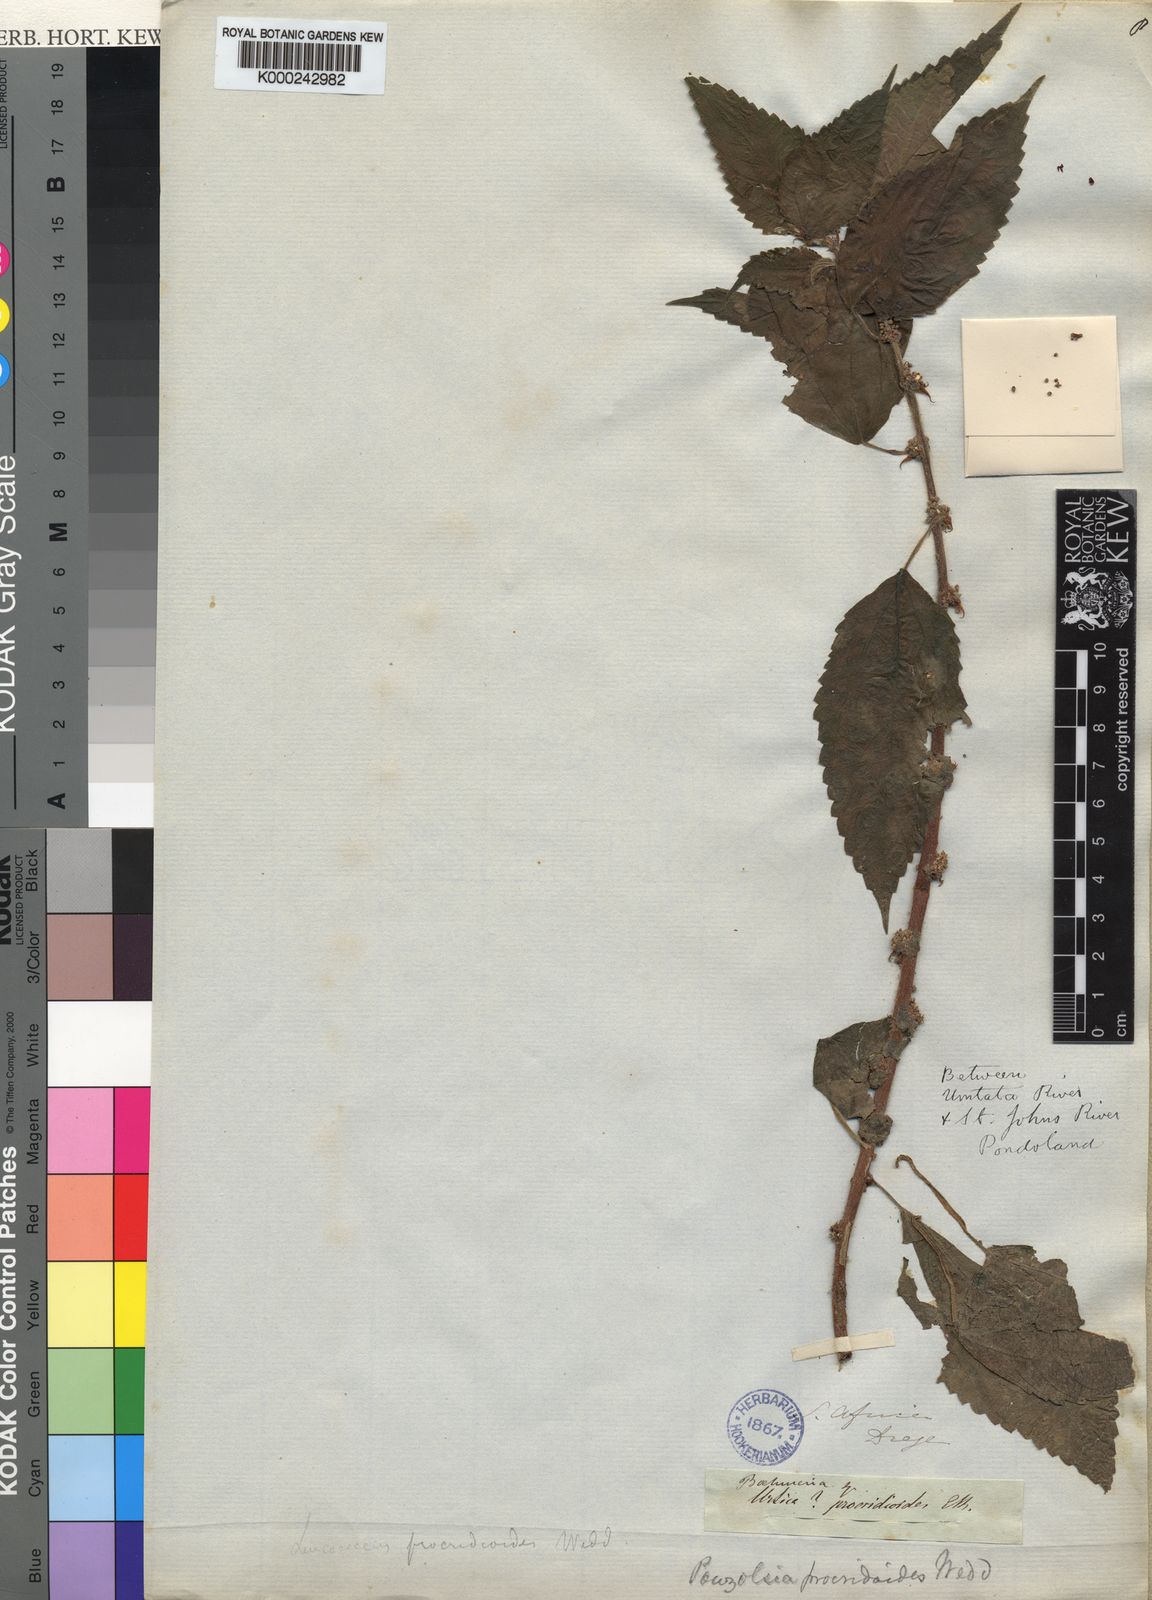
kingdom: Plantae
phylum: Tracheophyta
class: Magnoliopsida
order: Rosales
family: Urticaceae
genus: Pouzolzia
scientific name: Pouzolzia parasitica
